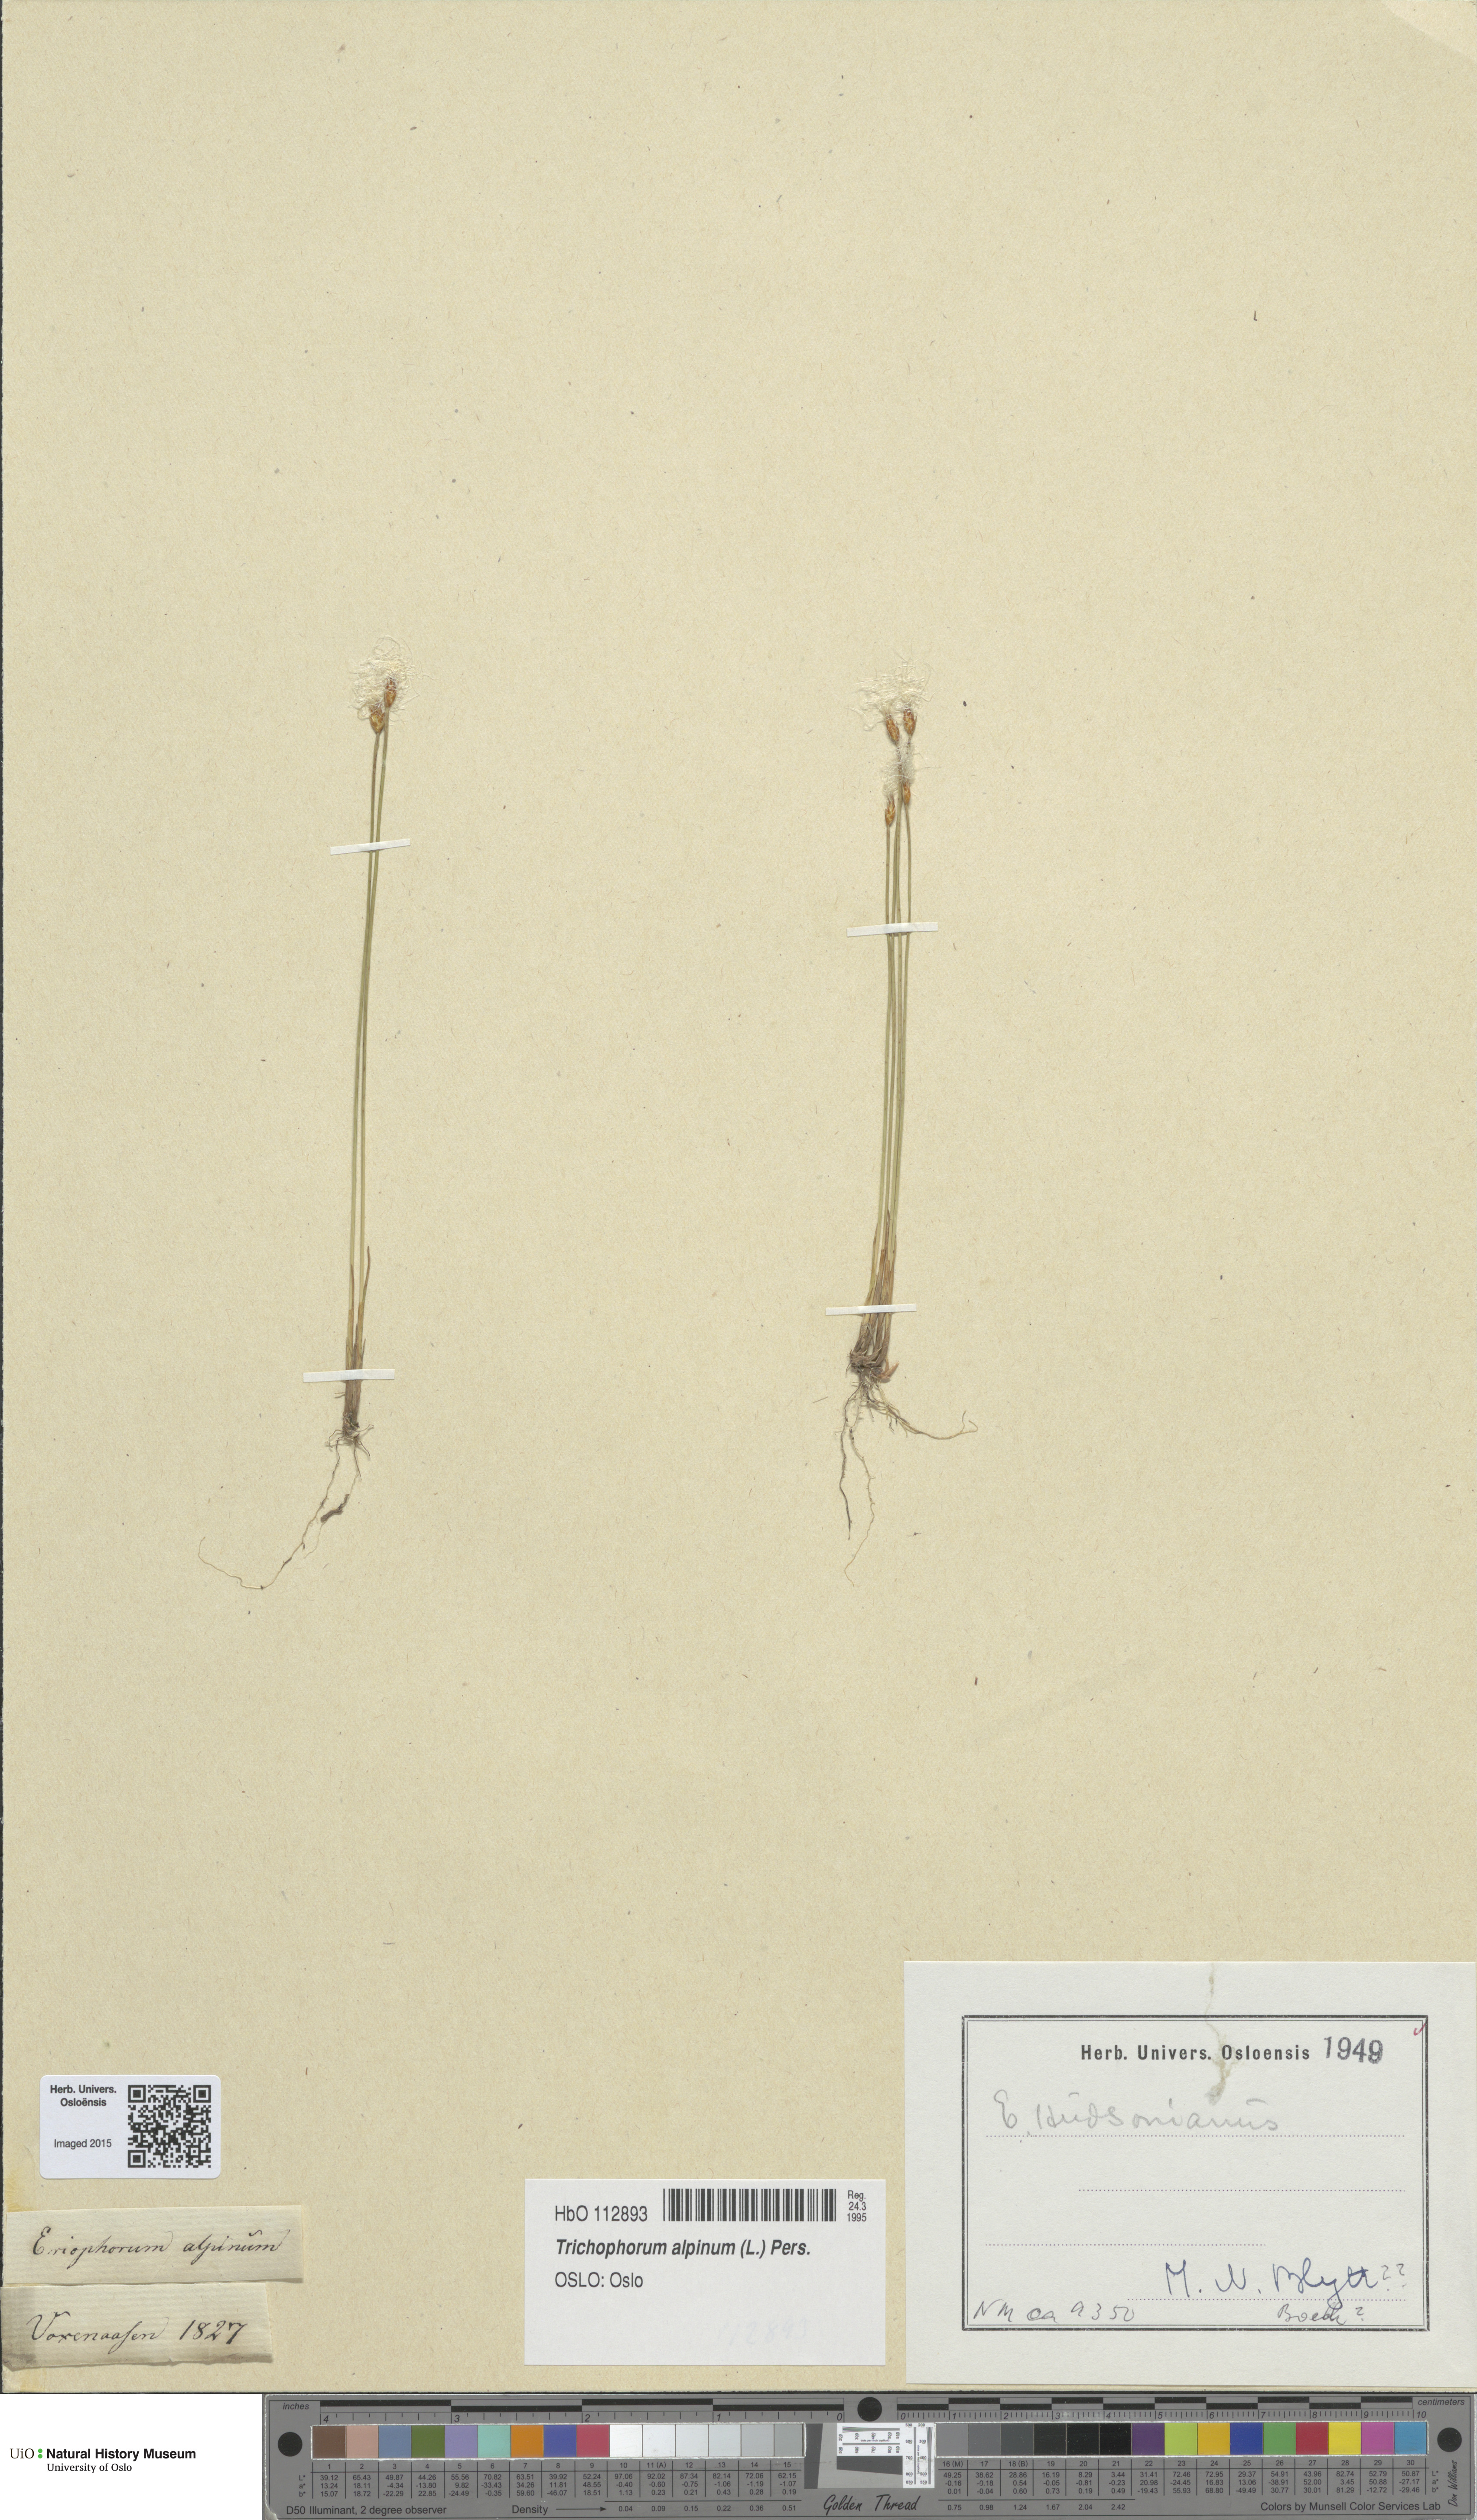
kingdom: Plantae
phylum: Tracheophyta
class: Liliopsida
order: Poales
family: Cyperaceae
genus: Trichophorum
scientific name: Trichophorum alpinum
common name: Alpine bulrush
